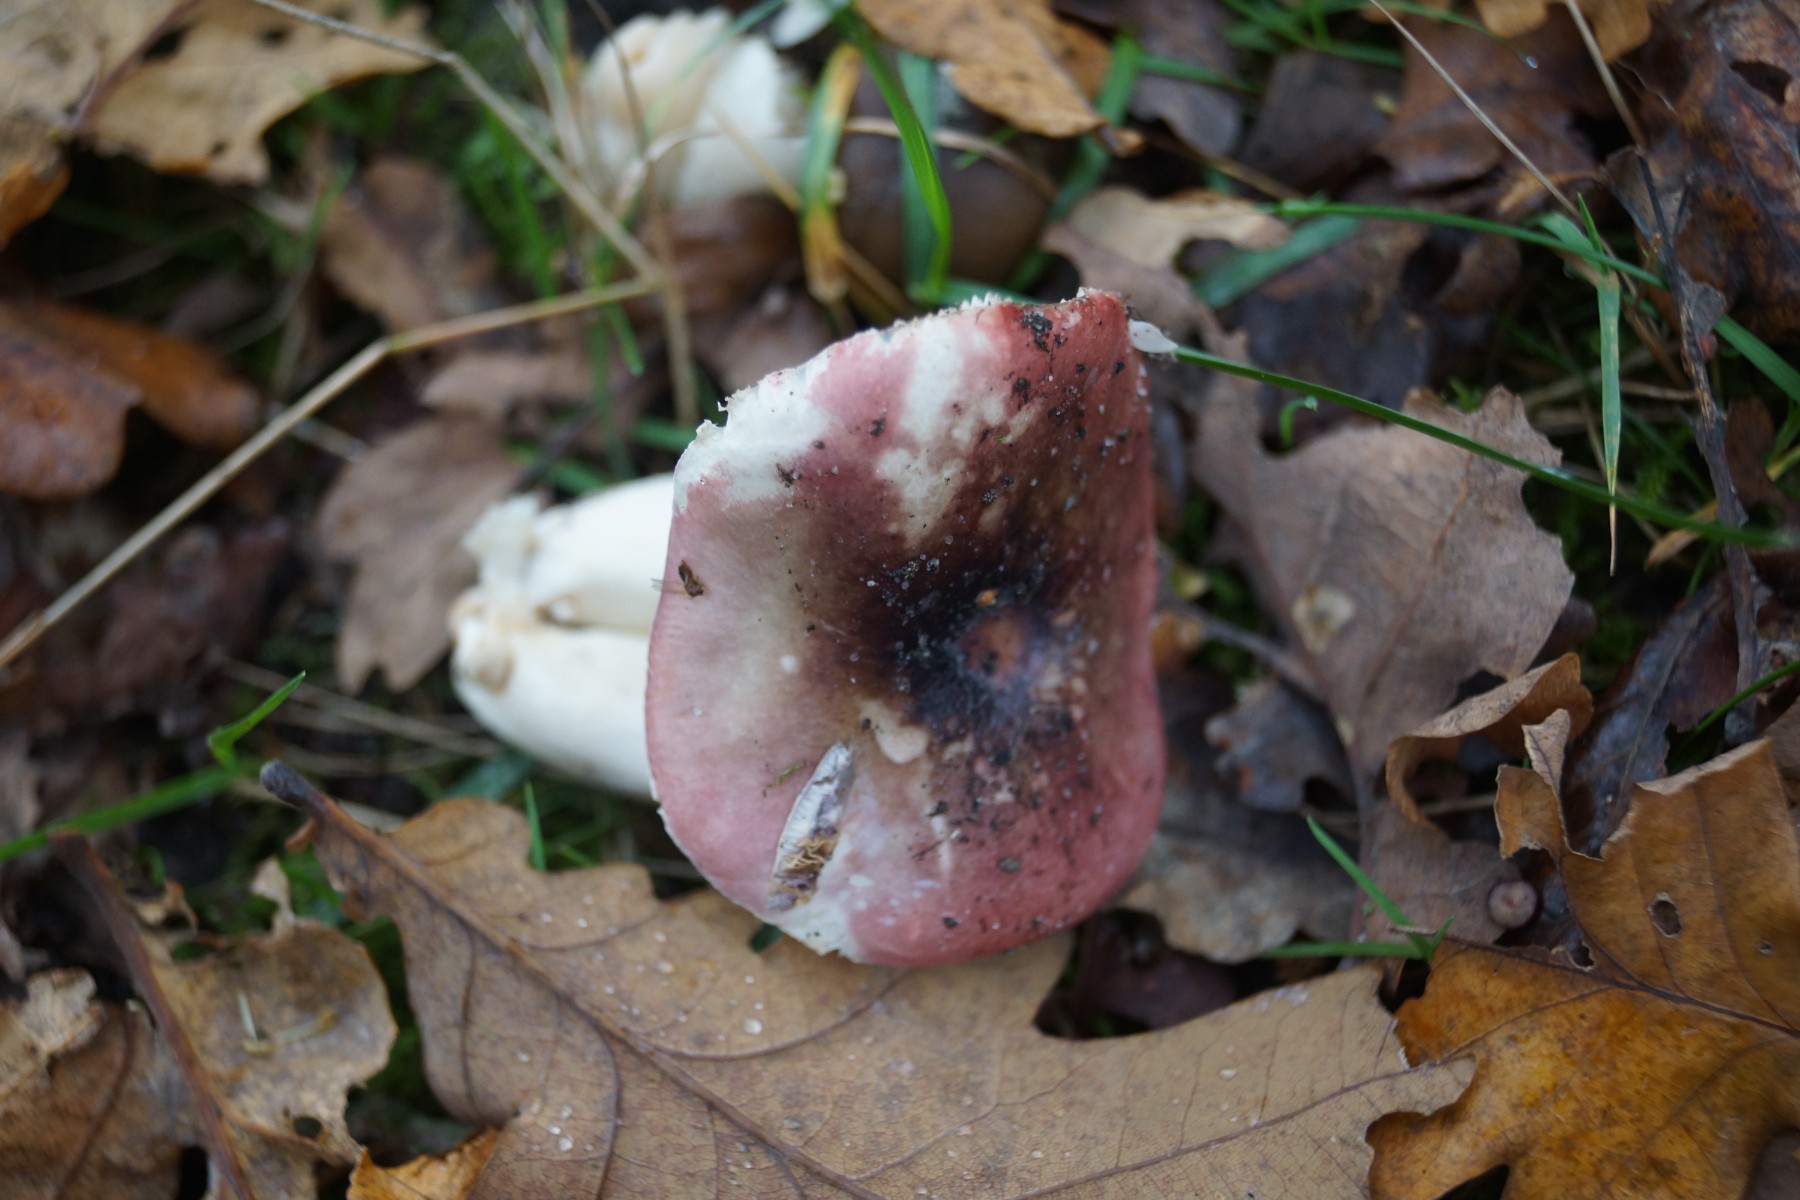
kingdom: Fungi
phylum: Basidiomycota
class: Agaricomycetes
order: Russulales
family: Russulaceae
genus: Russula
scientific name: Russula fragilis
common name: savbladet skørhat
